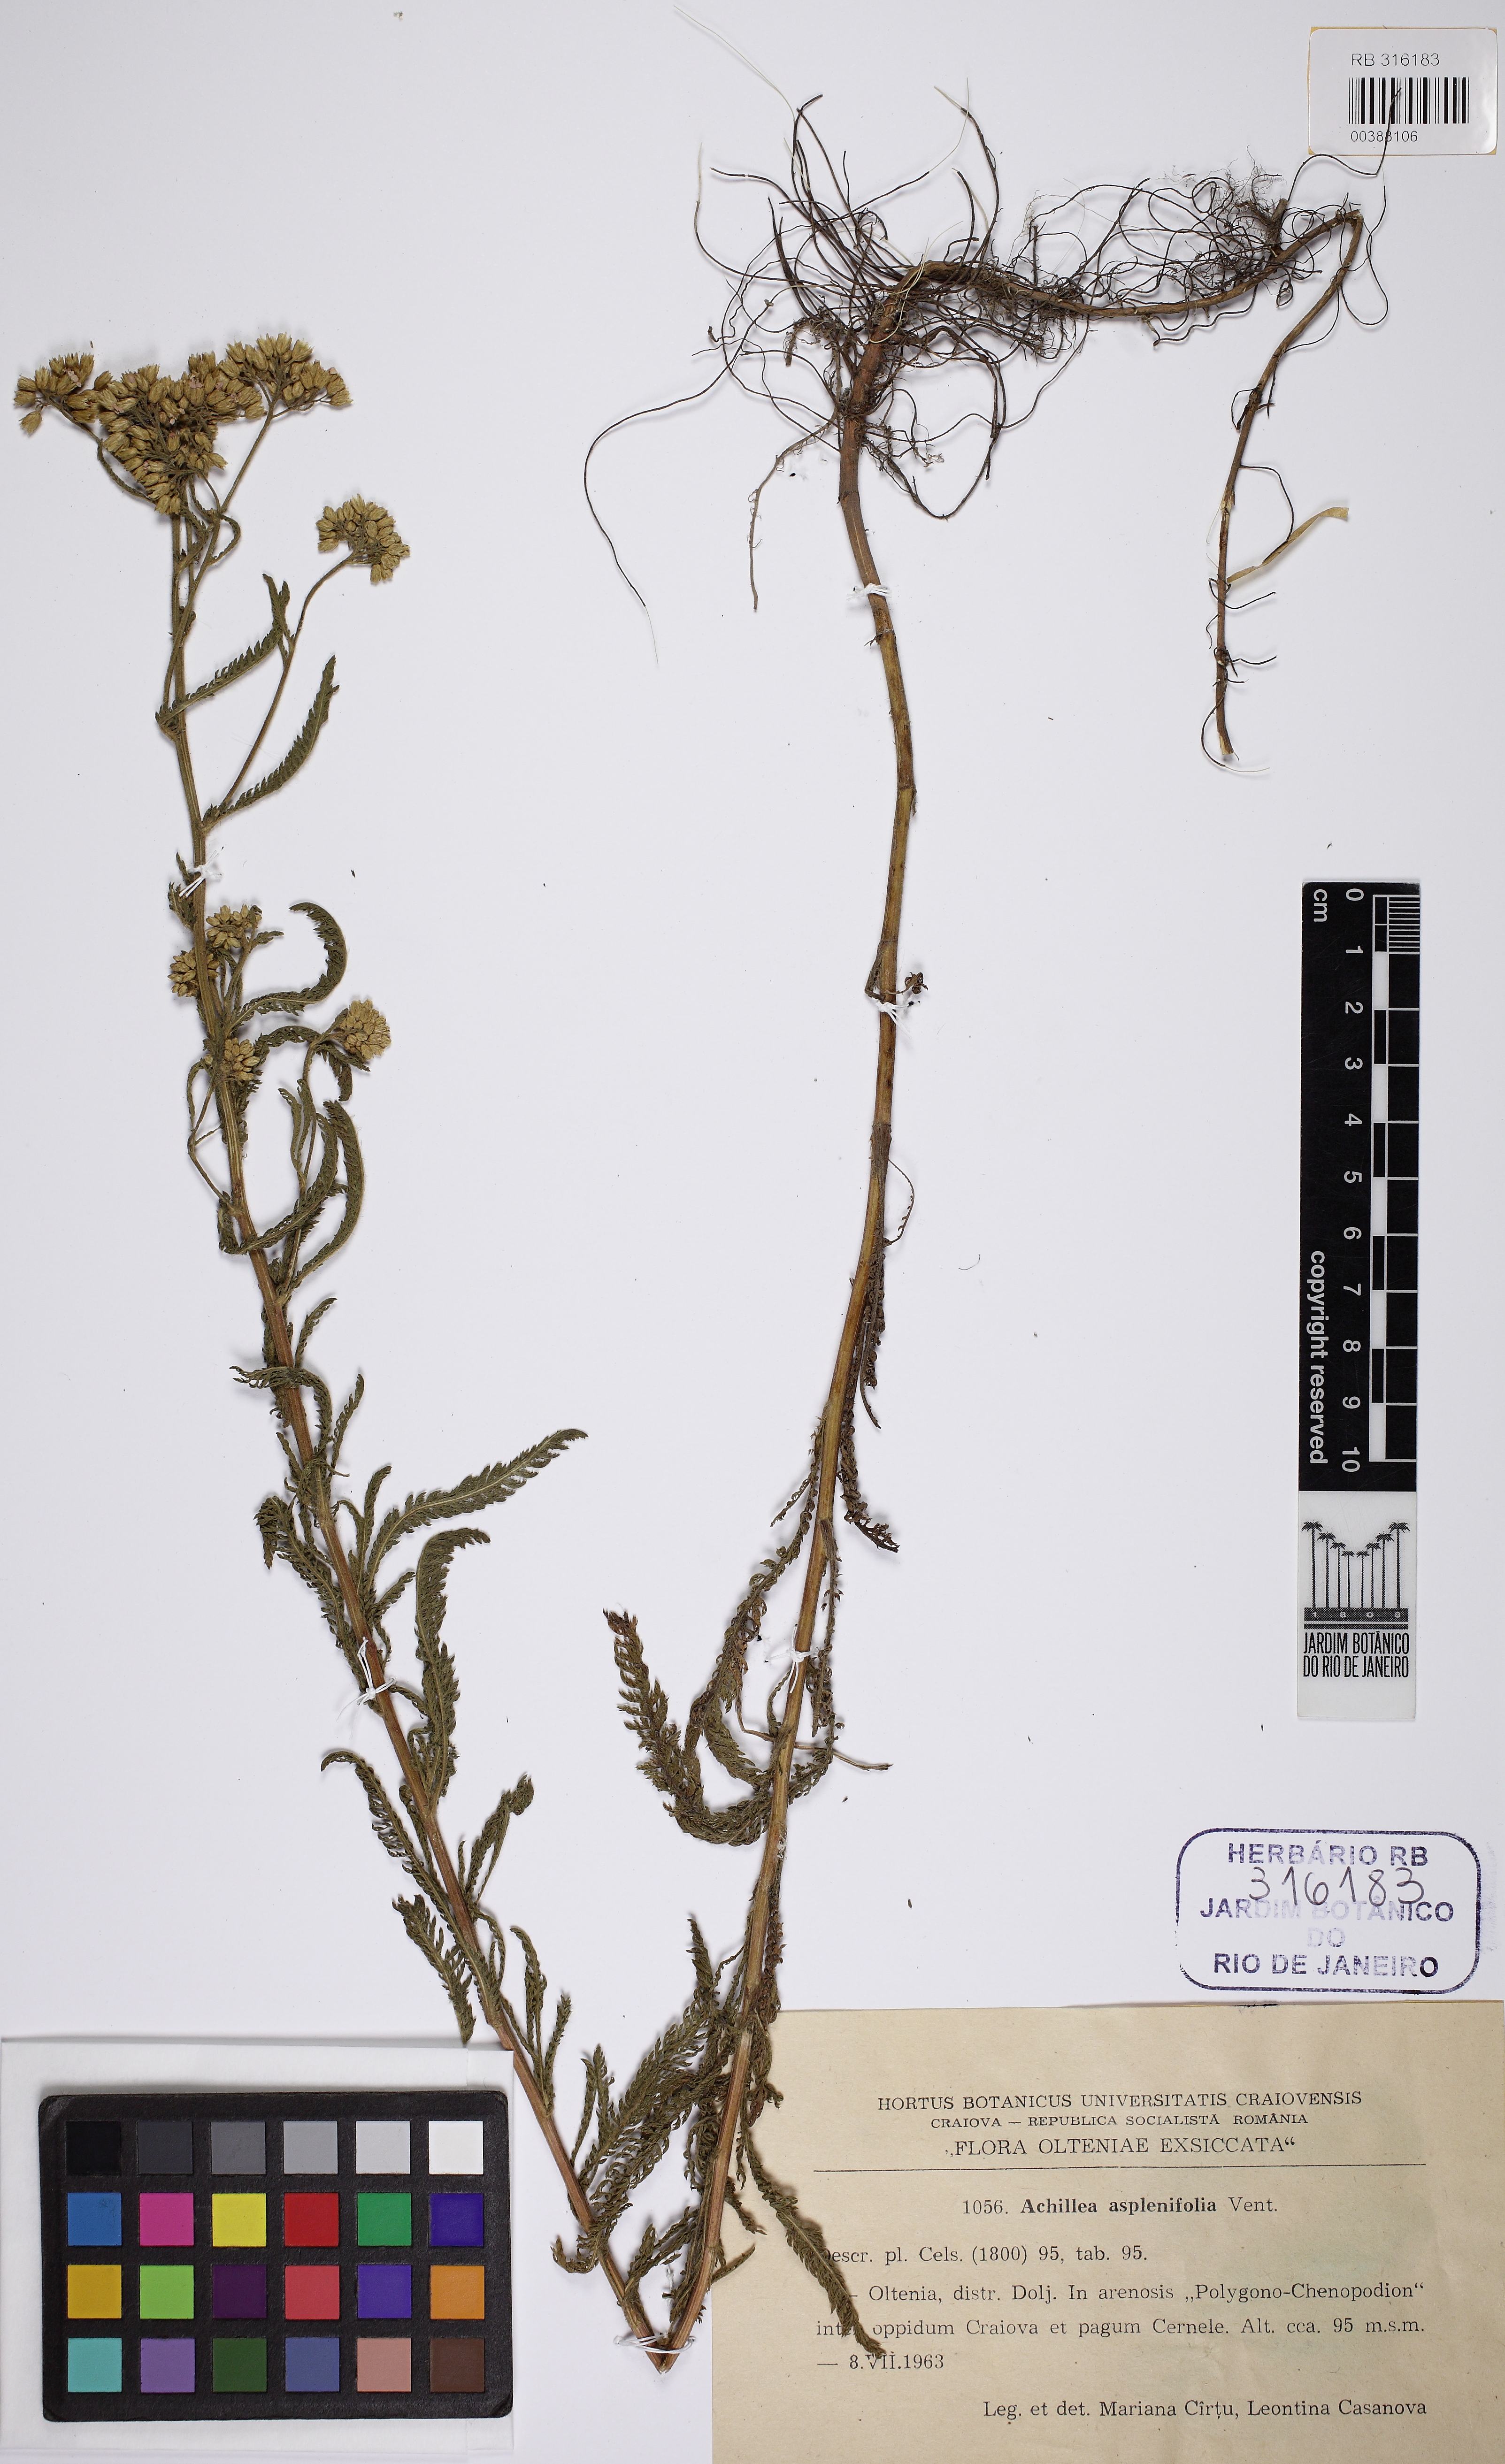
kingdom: Plantae
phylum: Tracheophyta
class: Magnoliopsida
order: Asterales
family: Asteraceae
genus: Achillea
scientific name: Achillea aspleniifolia
